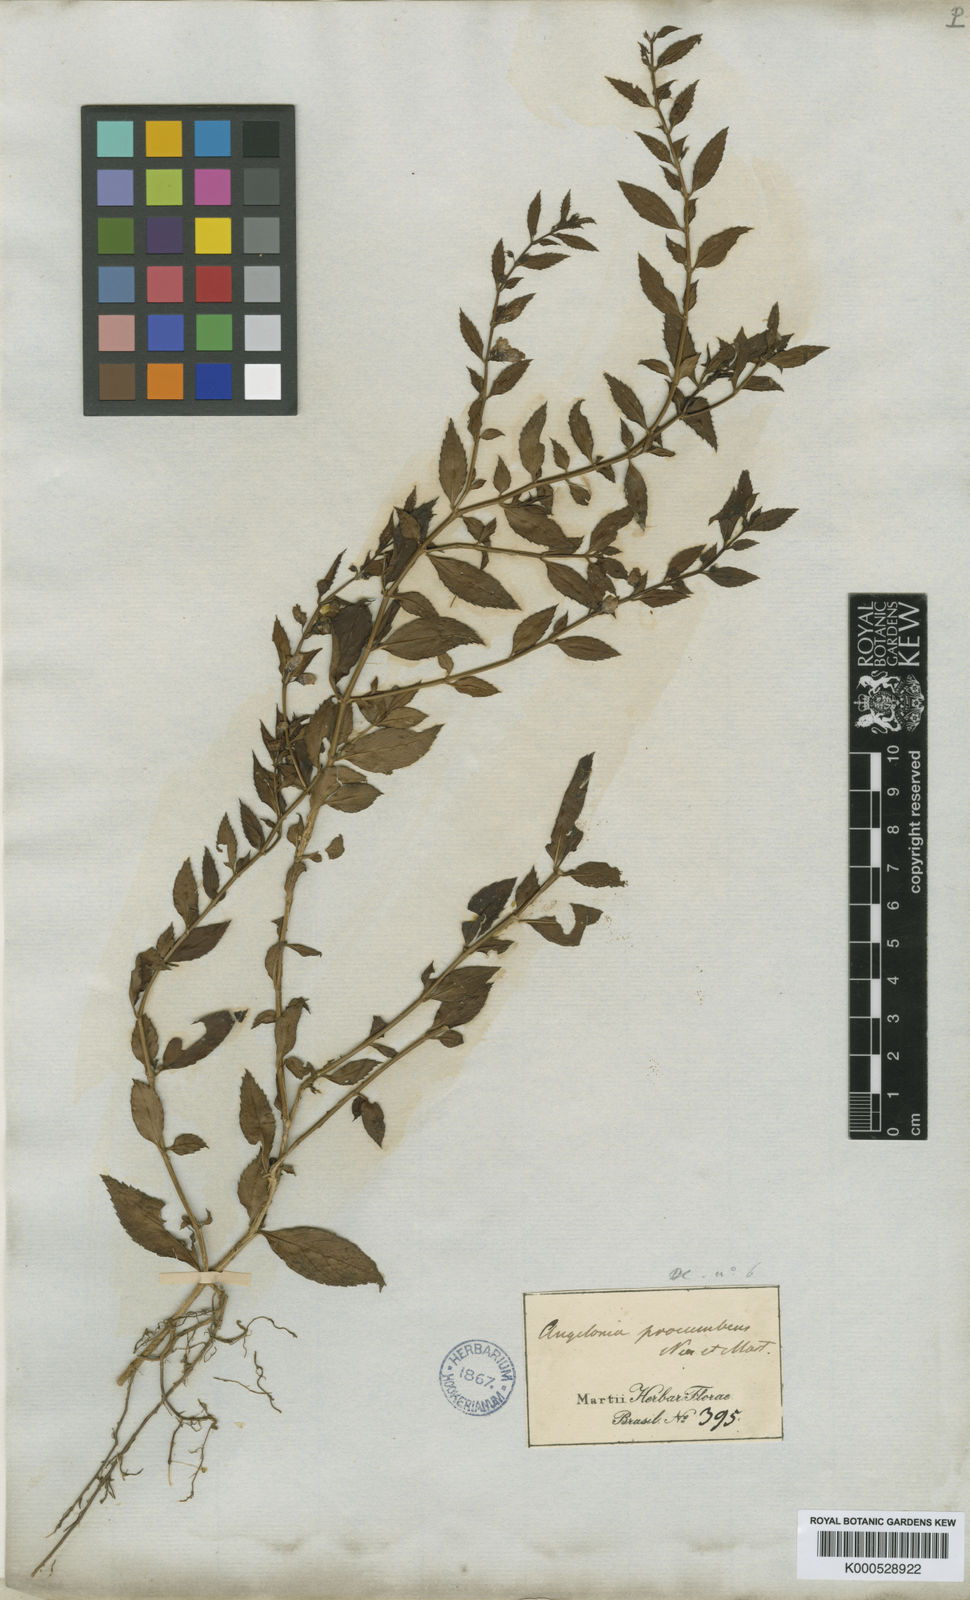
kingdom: Plantae
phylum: Tracheophyta
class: Magnoliopsida
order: Lamiales
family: Plantaginaceae
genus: Angelonia
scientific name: Angelonia procumbens
